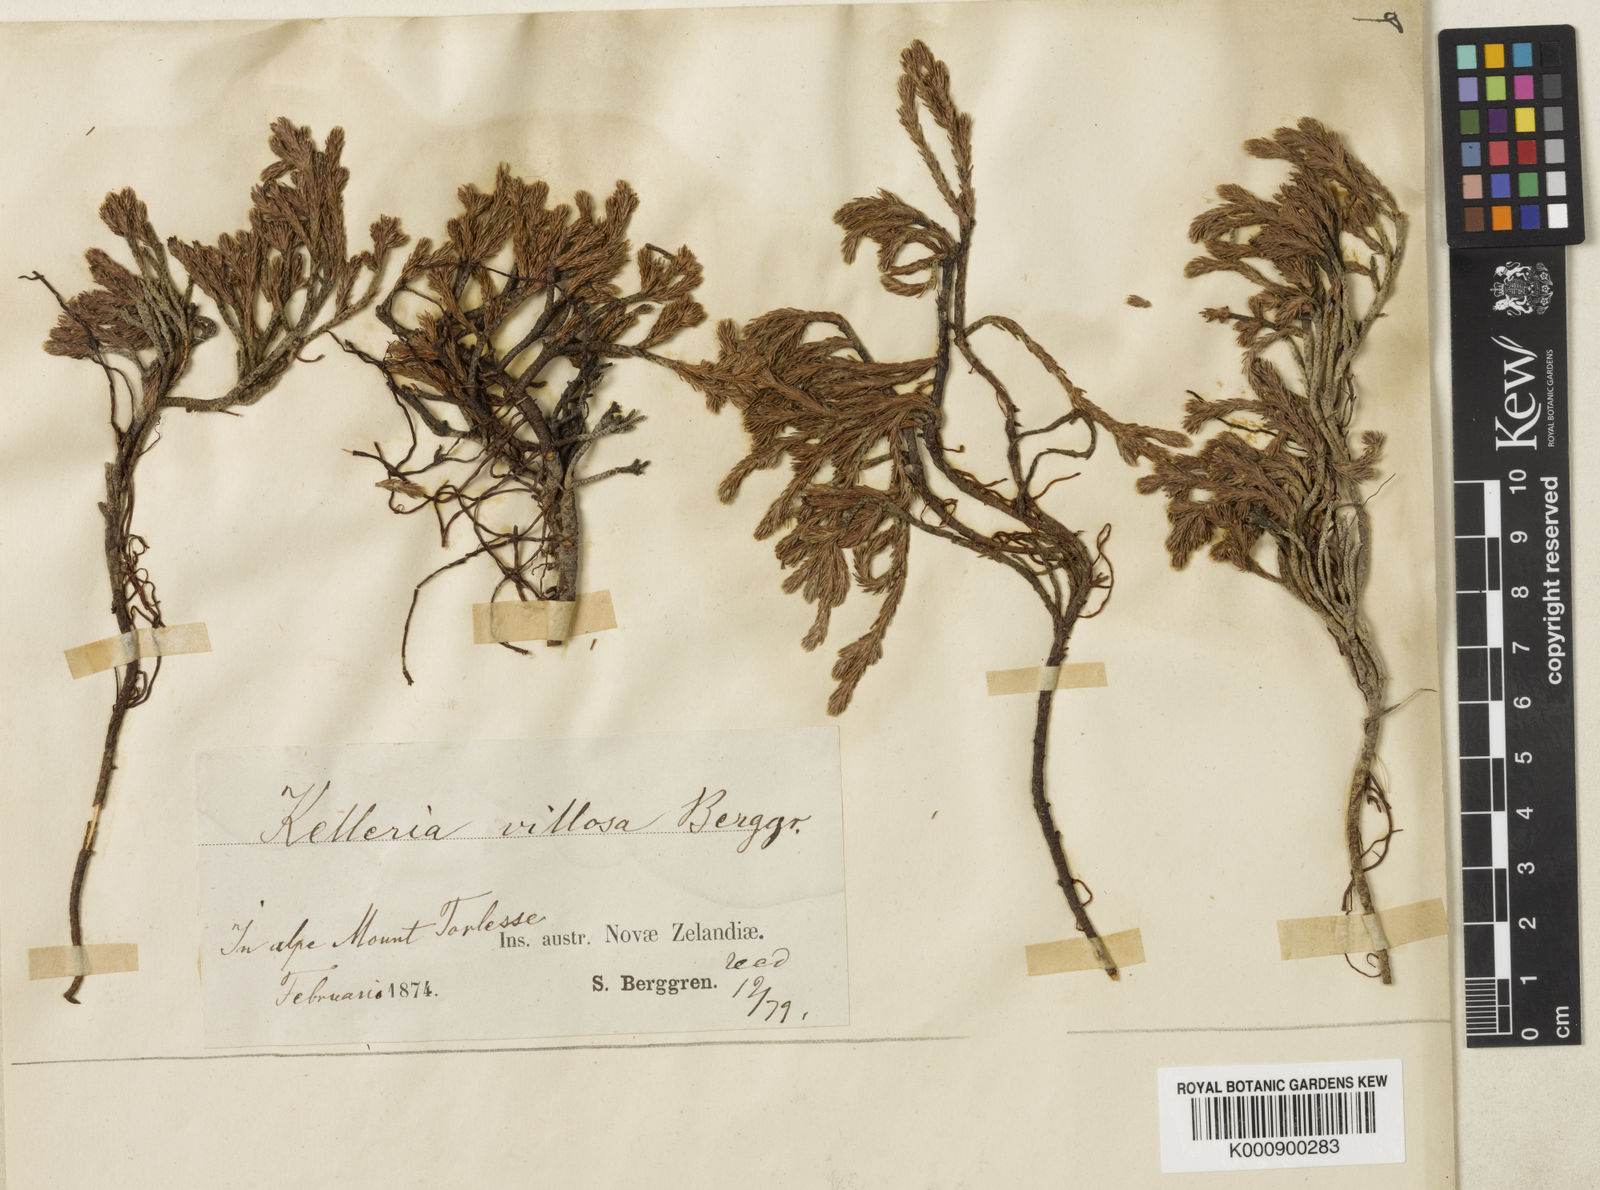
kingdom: Plantae
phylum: Tracheophyta
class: Magnoliopsida
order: Malvales
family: Thymelaeaceae
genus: Kelleria
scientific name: Kelleria villosa
